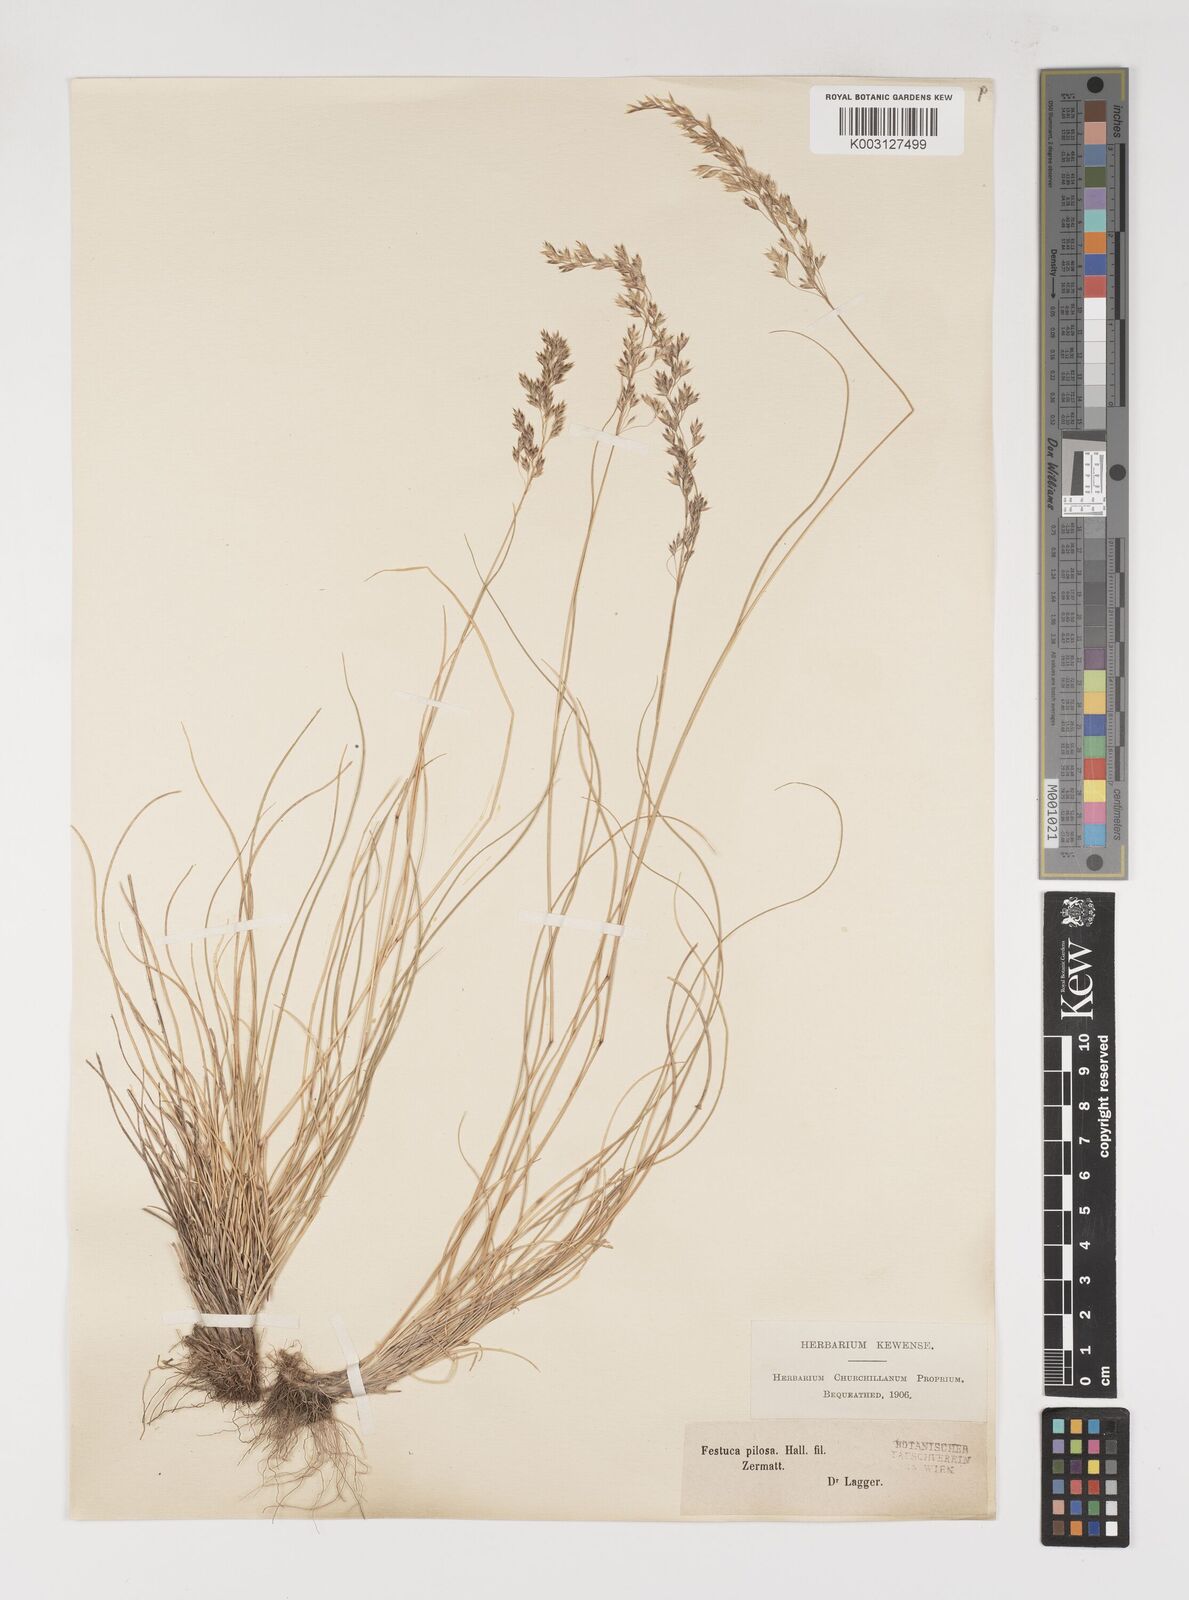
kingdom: Plantae
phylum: Tracheophyta
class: Liliopsida
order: Poales
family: Poaceae
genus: Bellardiochloa
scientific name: Bellardiochloa variegata
